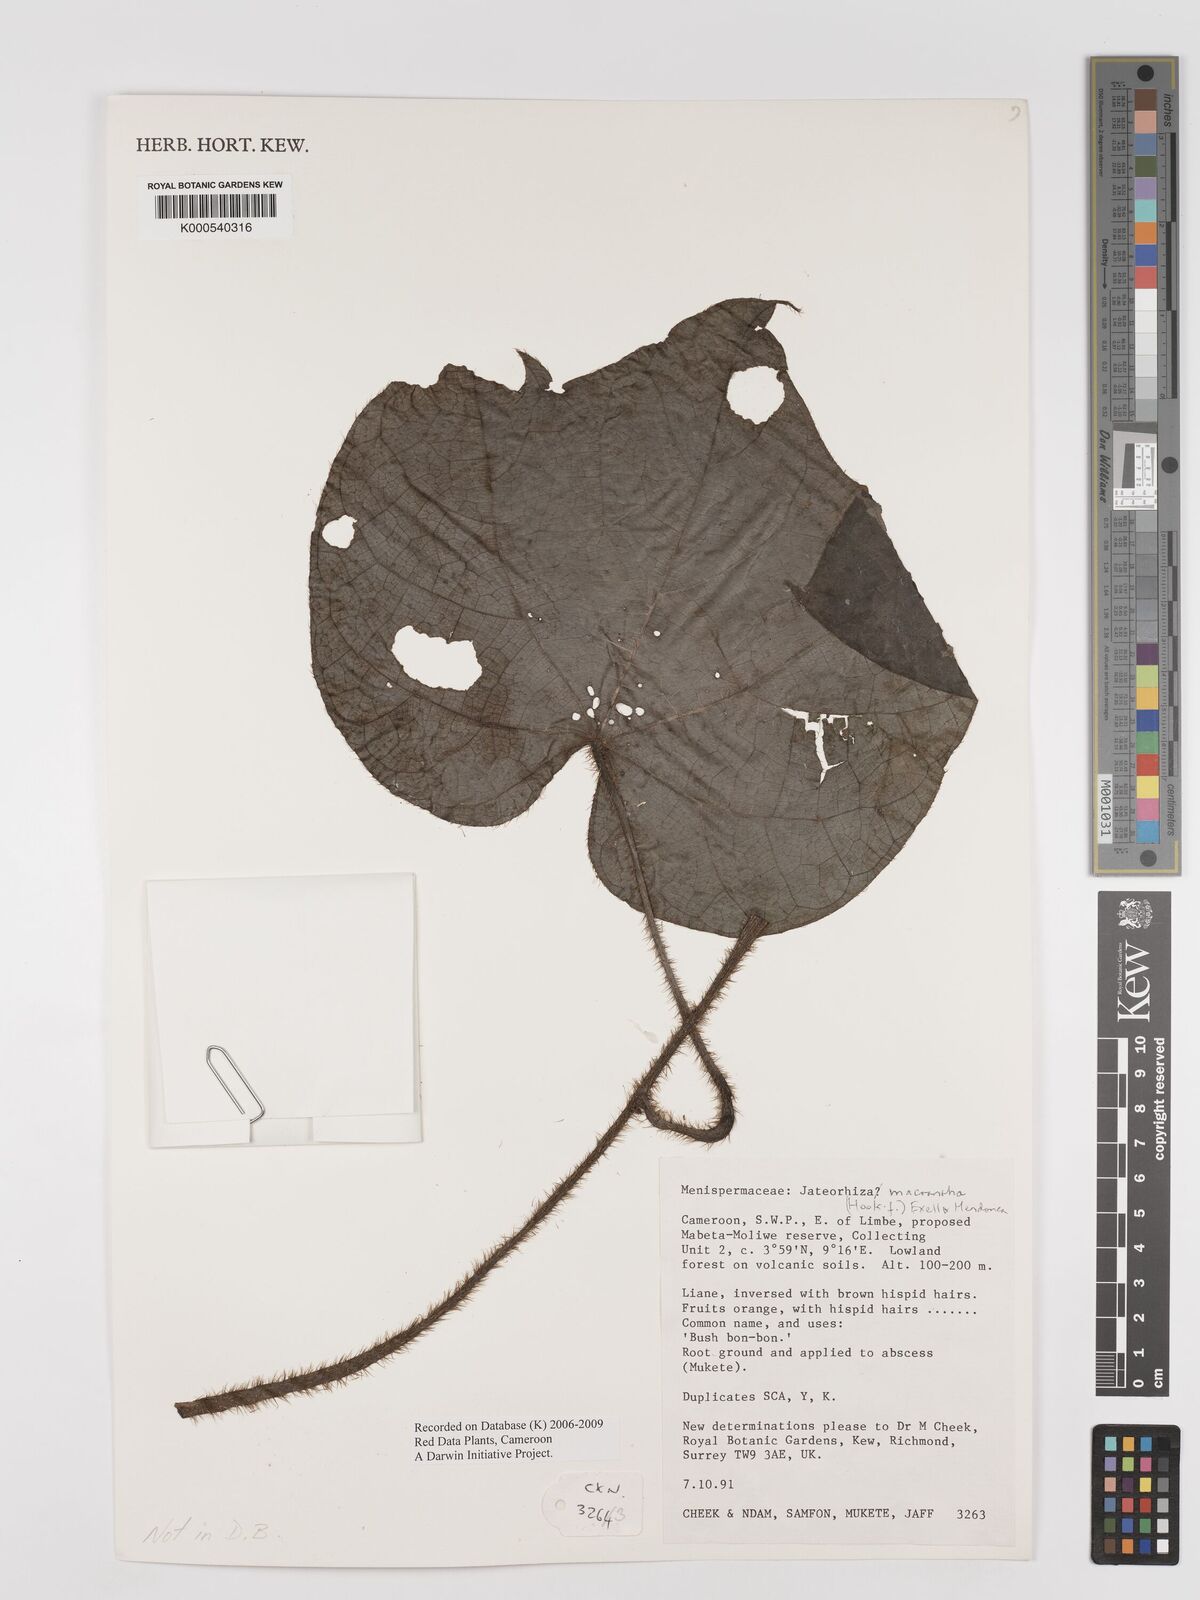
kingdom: Plantae
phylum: Tracheophyta
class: Magnoliopsida
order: Ranunculales
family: Menispermaceae
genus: Jateorhiza
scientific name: Jateorhiza
